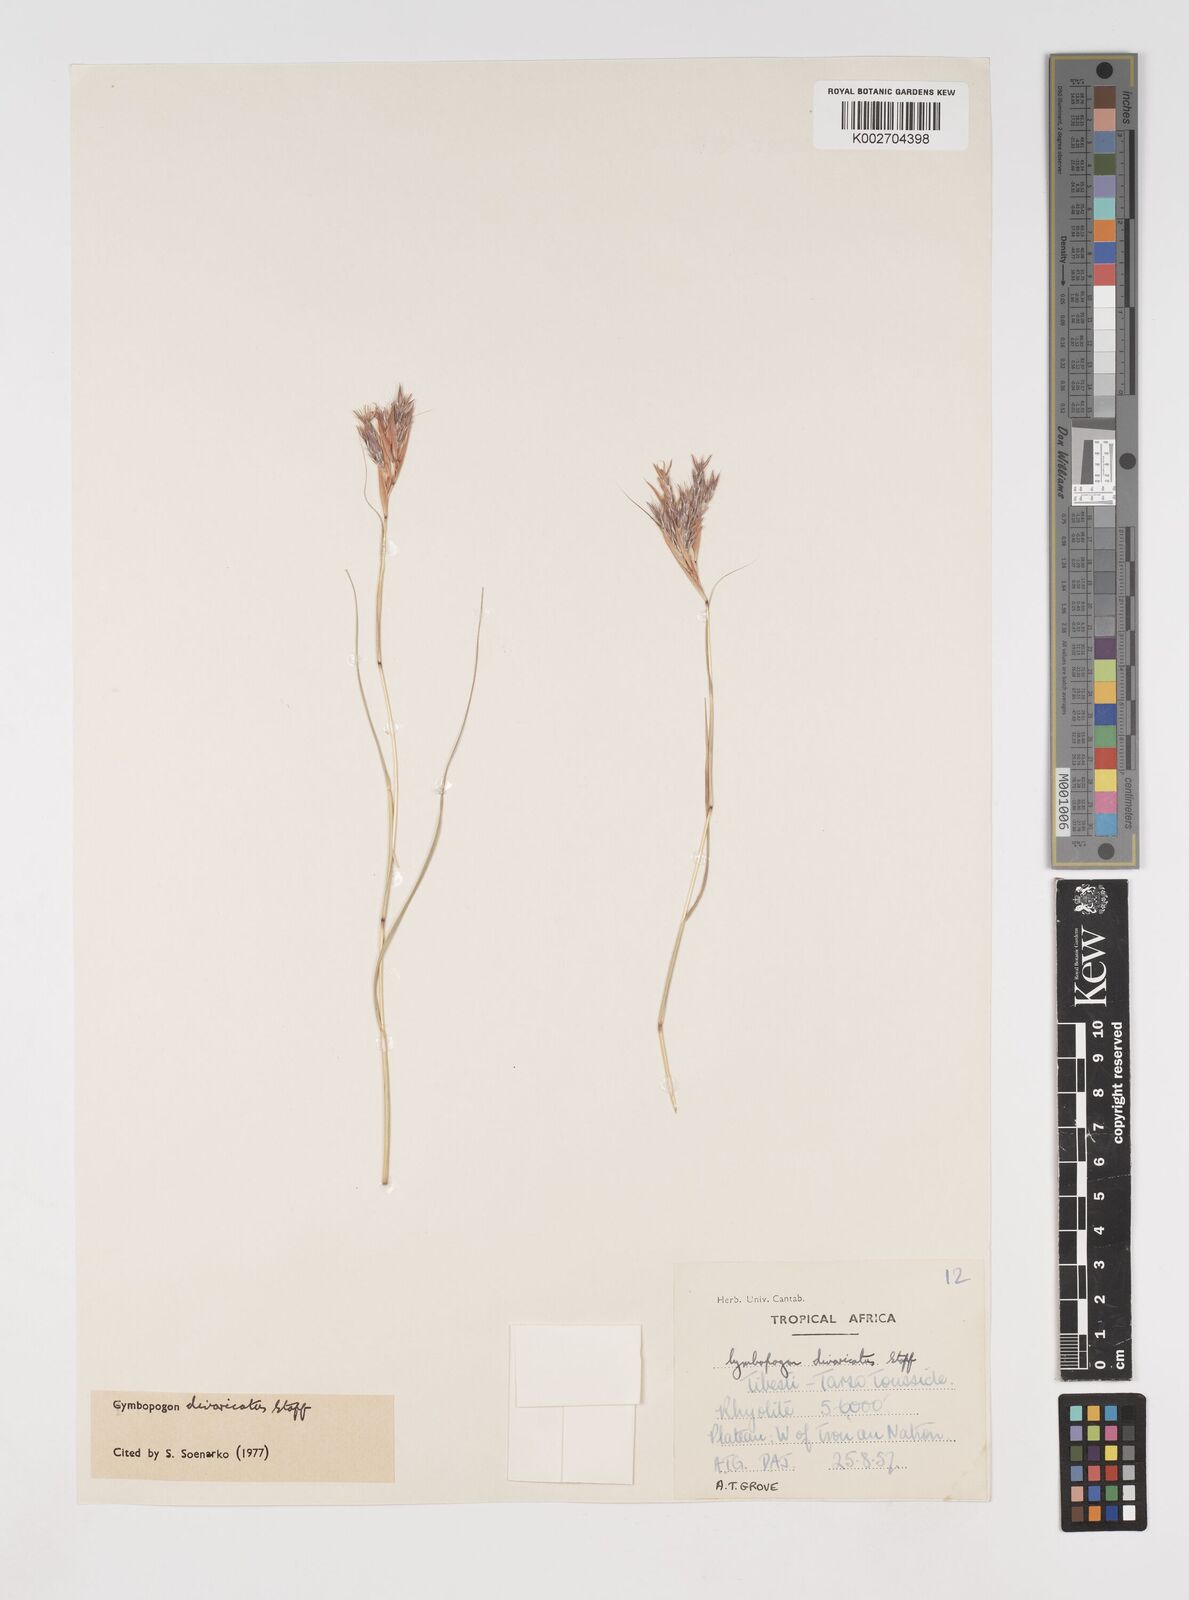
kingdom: Plantae
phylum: Tracheophyta
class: Liliopsida
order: Poales
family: Poaceae
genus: Cymbopogon
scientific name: Cymbopogon commutatus
